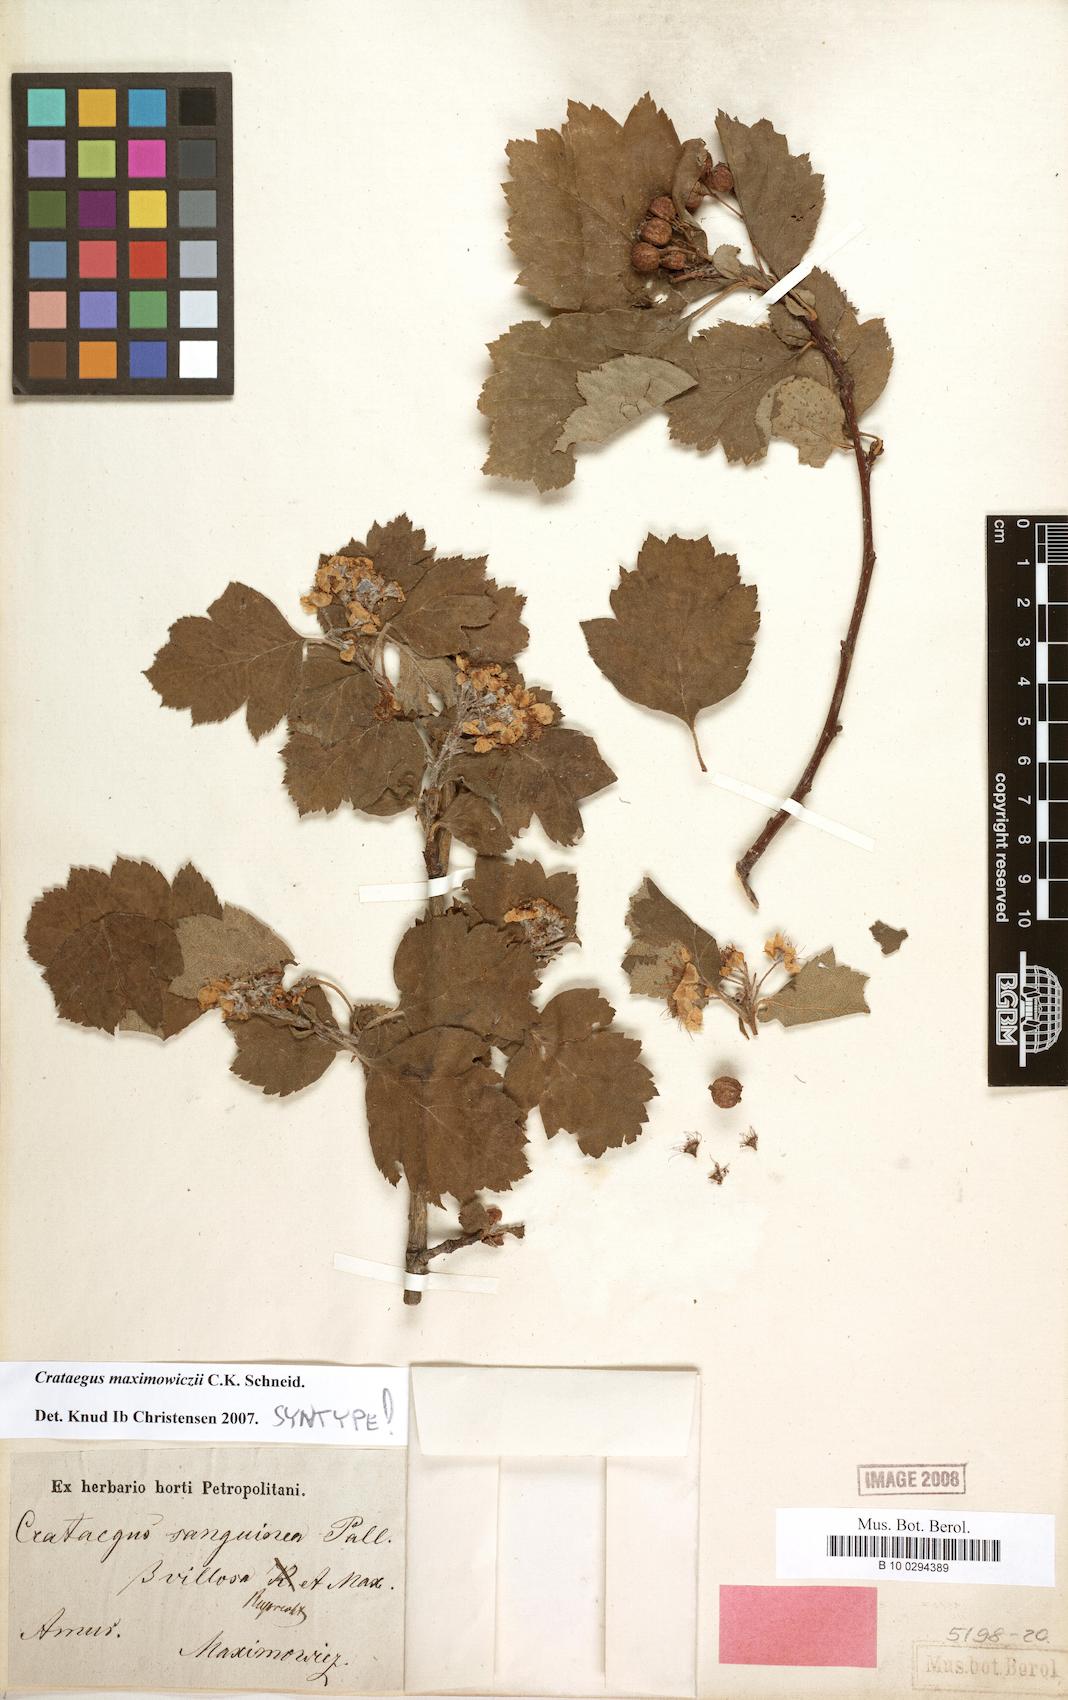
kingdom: Plantae
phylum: Tracheophyta
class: Magnoliopsida
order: Rosales
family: Rosaceae
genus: Crataegus
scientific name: Crataegus maximowiczii
